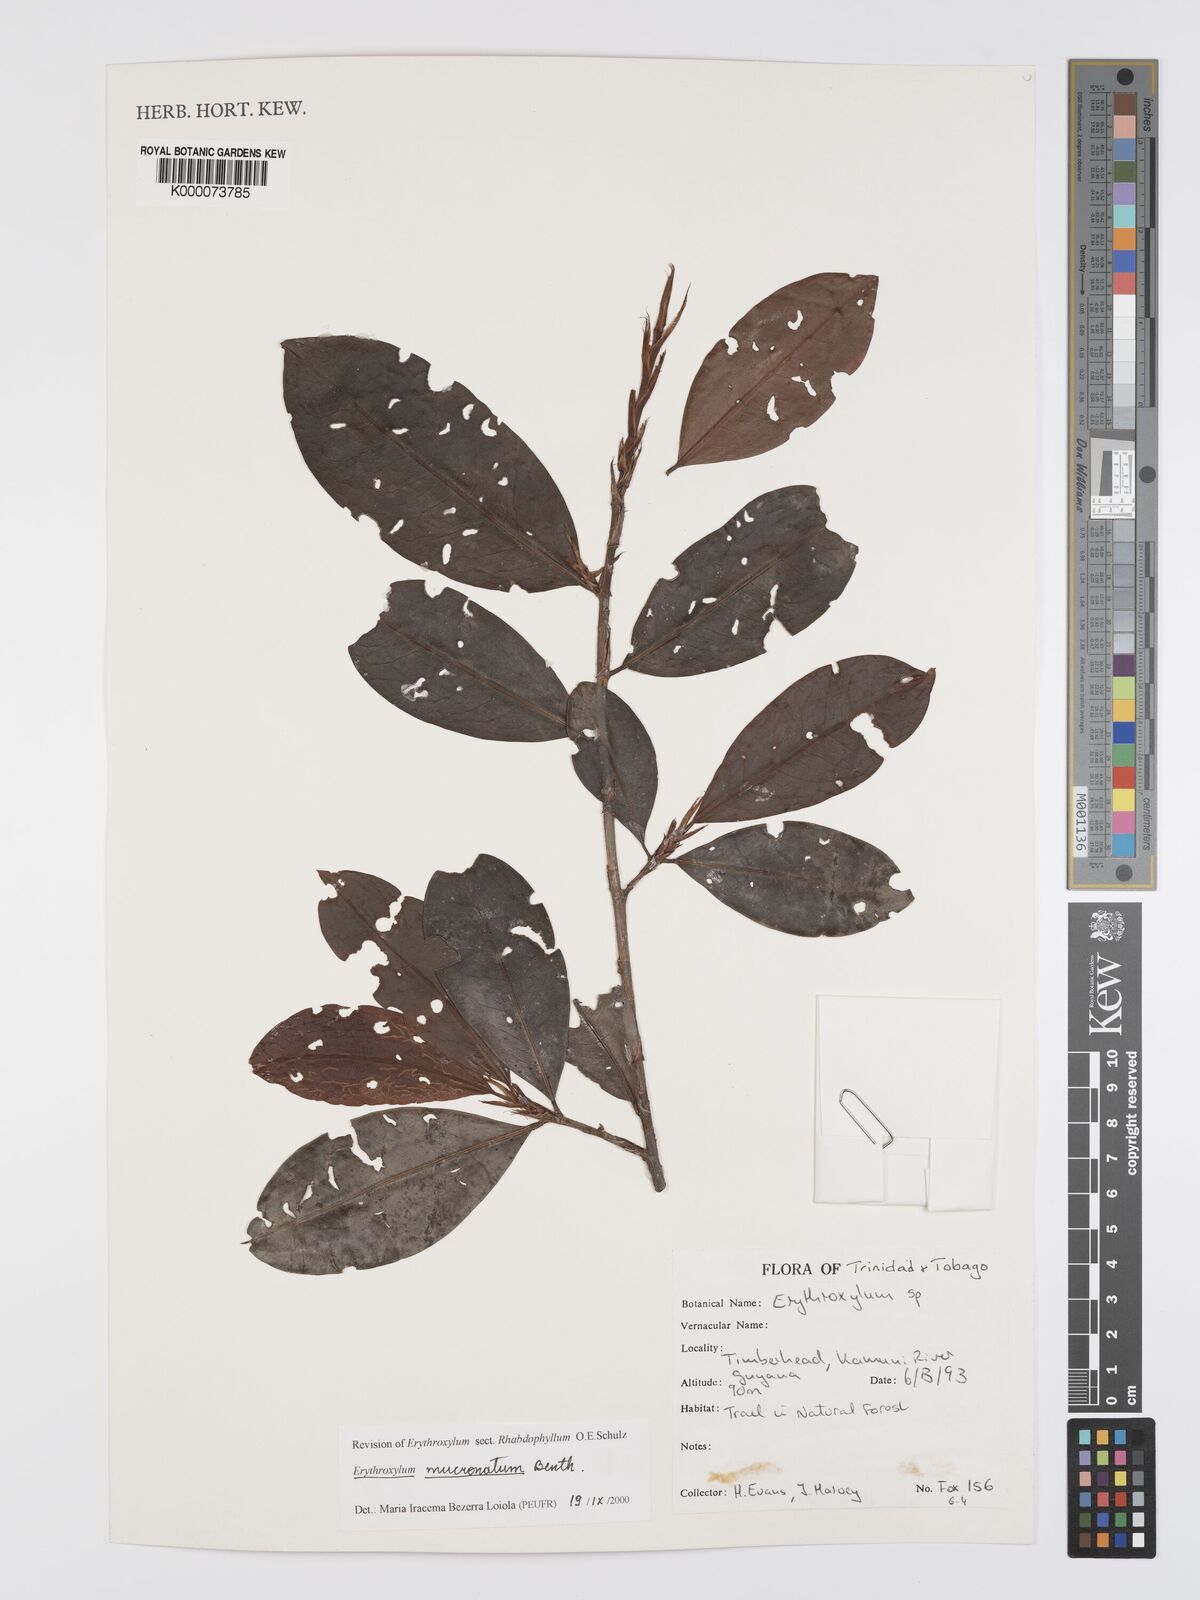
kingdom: Plantae
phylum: Tracheophyta
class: Magnoliopsida
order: Malpighiales
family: Erythroxylaceae
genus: Erythroxylum
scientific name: Erythroxylum mucronatum
